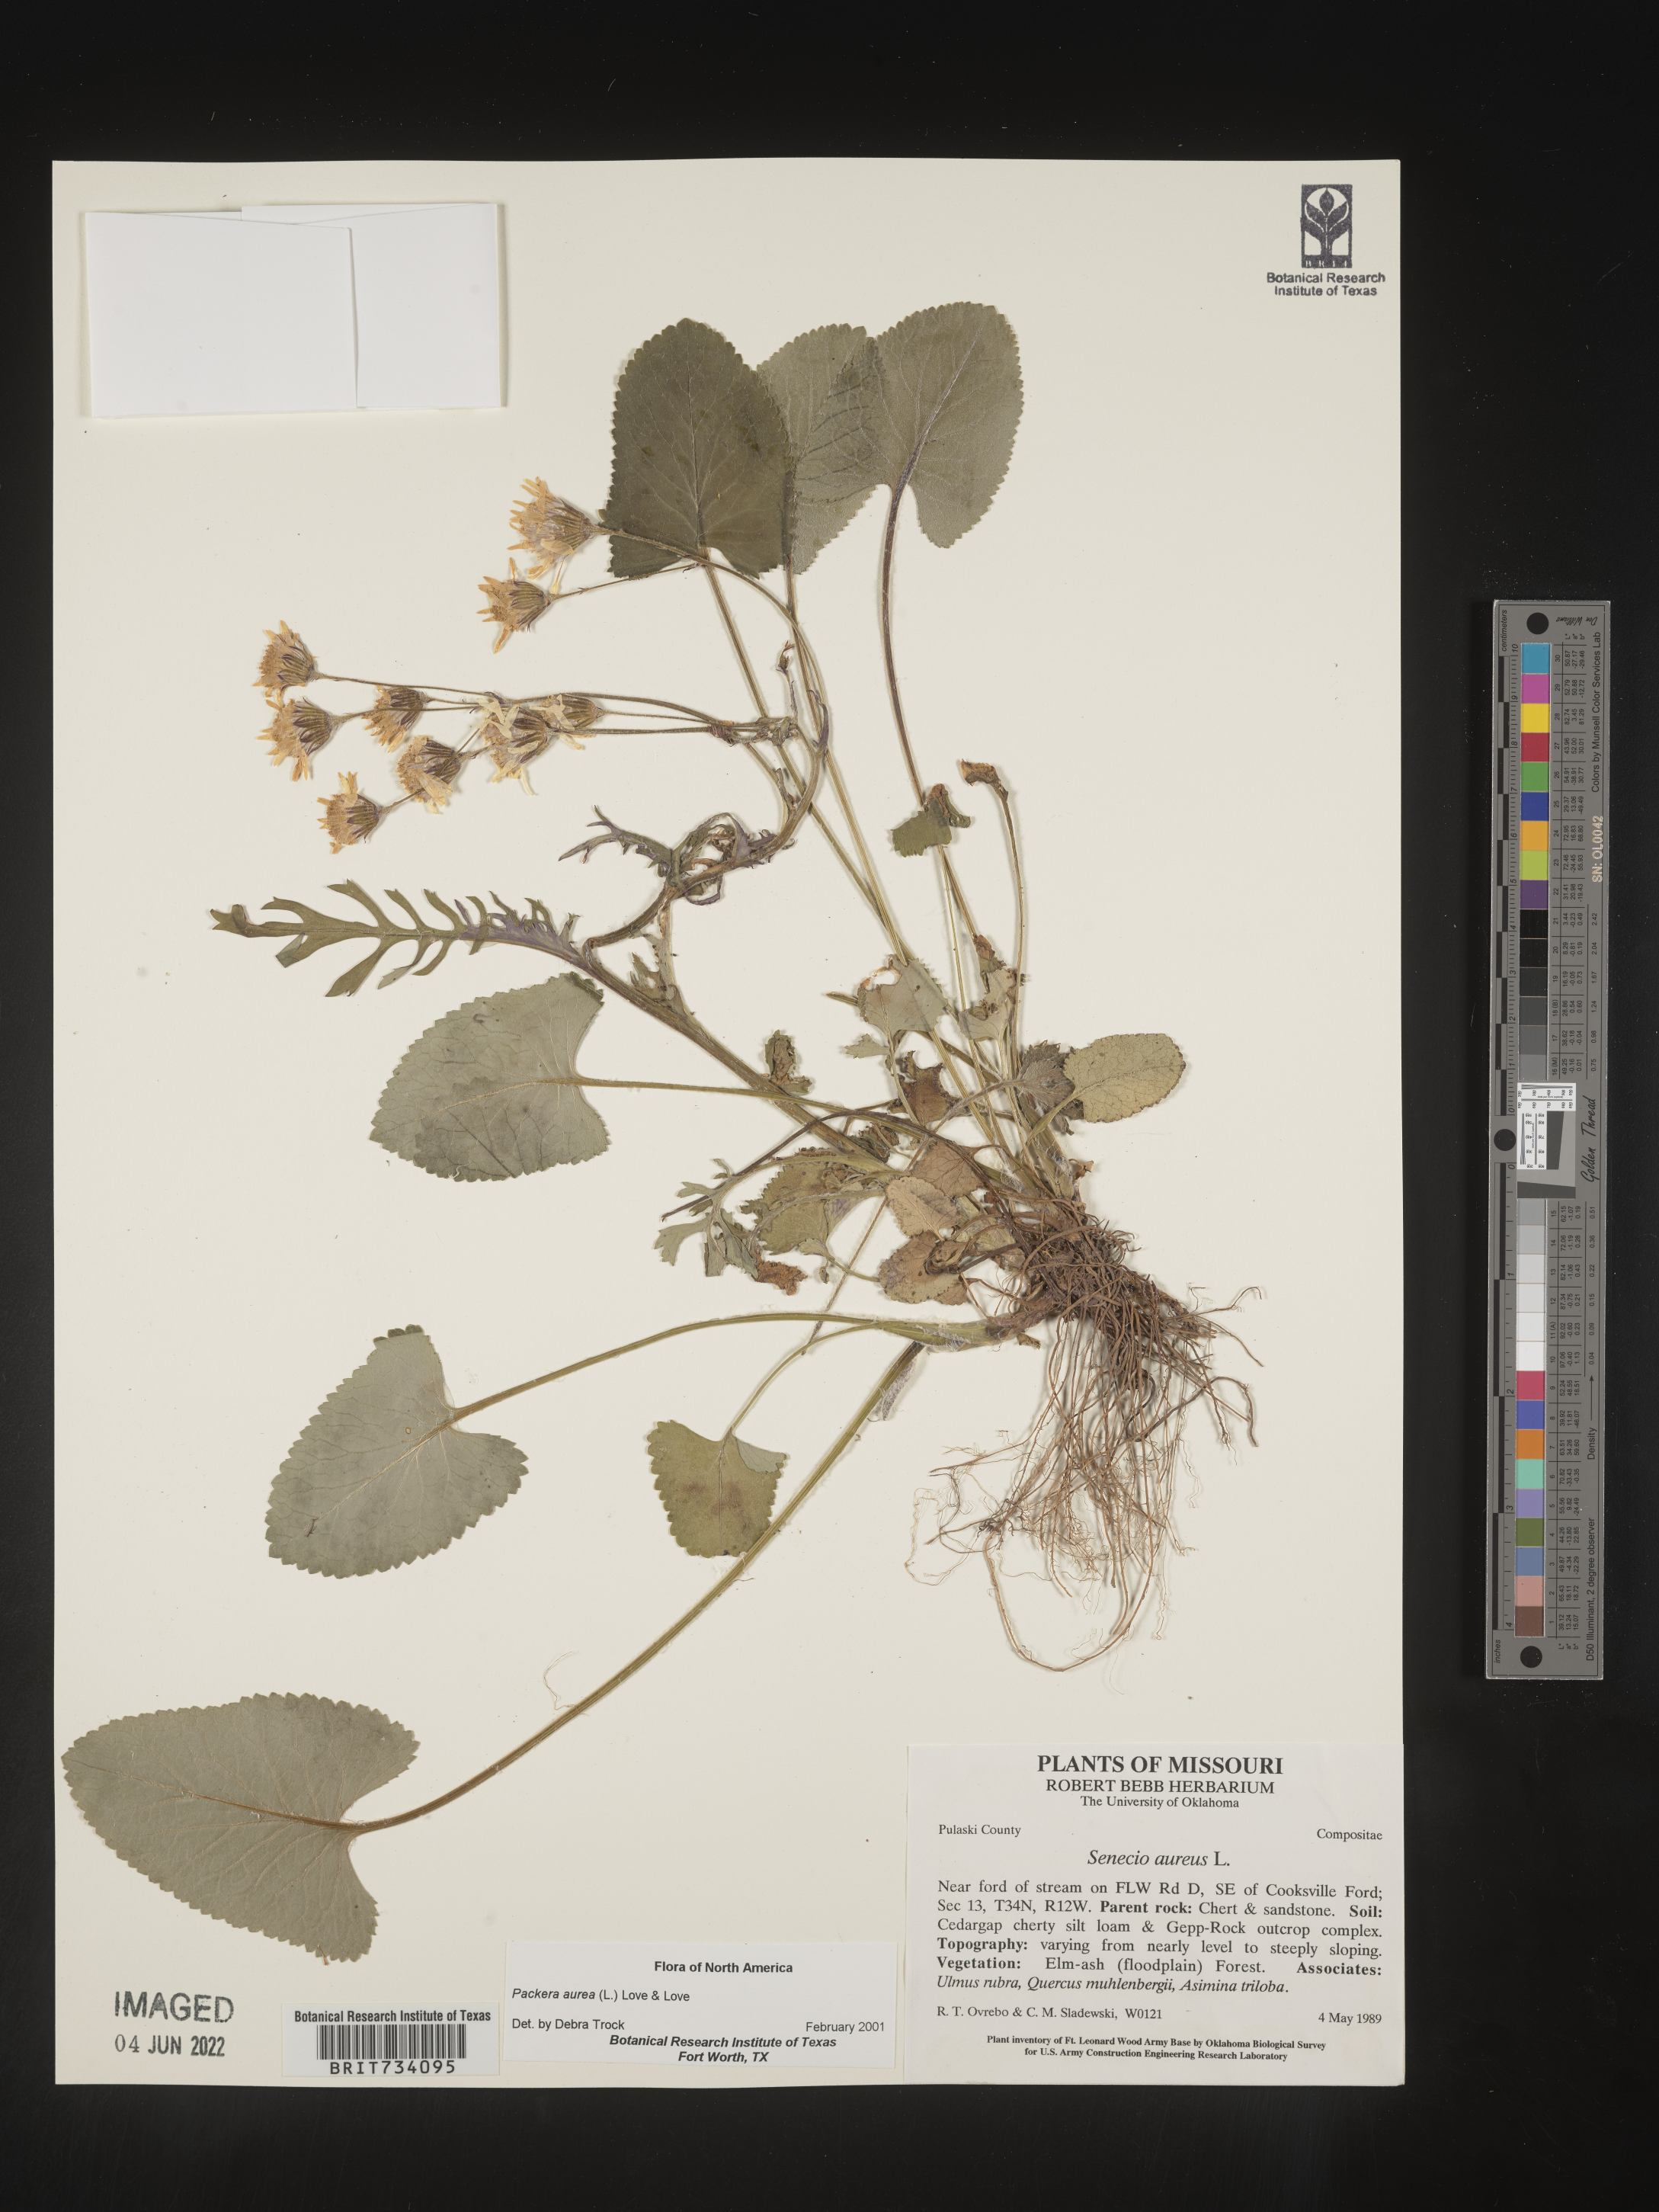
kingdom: Plantae
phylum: Tracheophyta
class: Magnoliopsida
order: Asterales
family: Asteraceae
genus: Packera
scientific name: Packera aurea
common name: Golden groundsel
